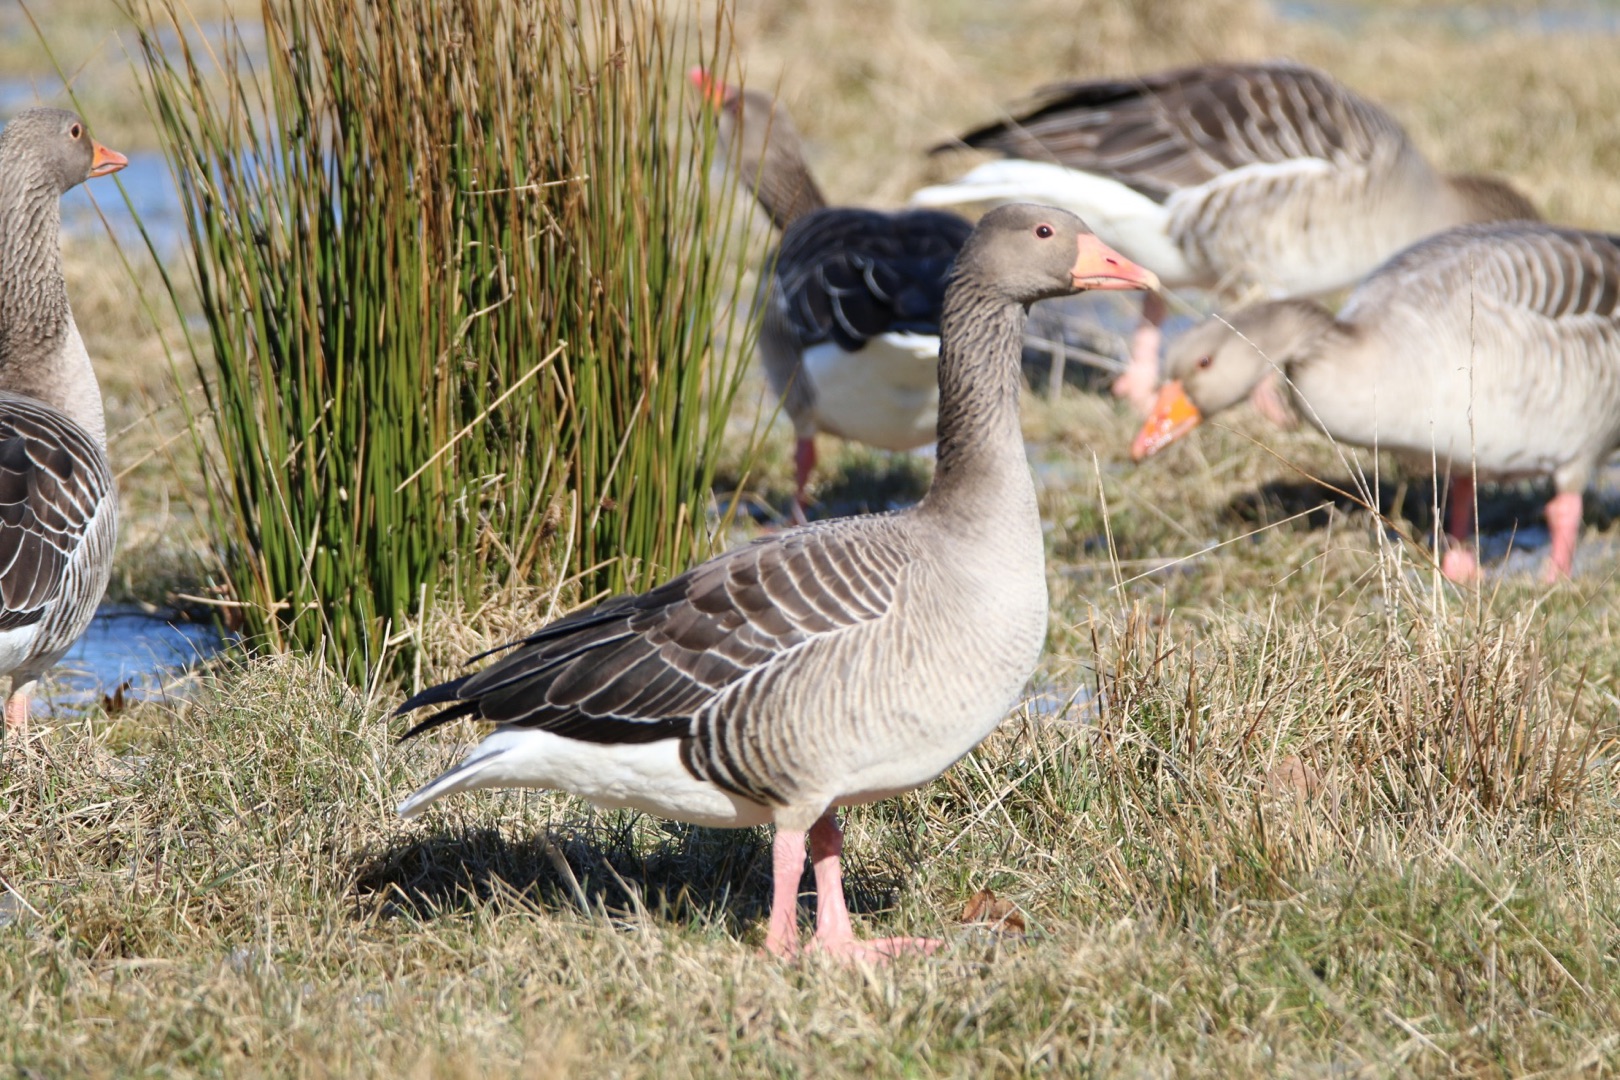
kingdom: Animalia
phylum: Chordata
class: Aves
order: Anseriformes
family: Anatidae
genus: Anser
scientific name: Anser anser
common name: Grågås
